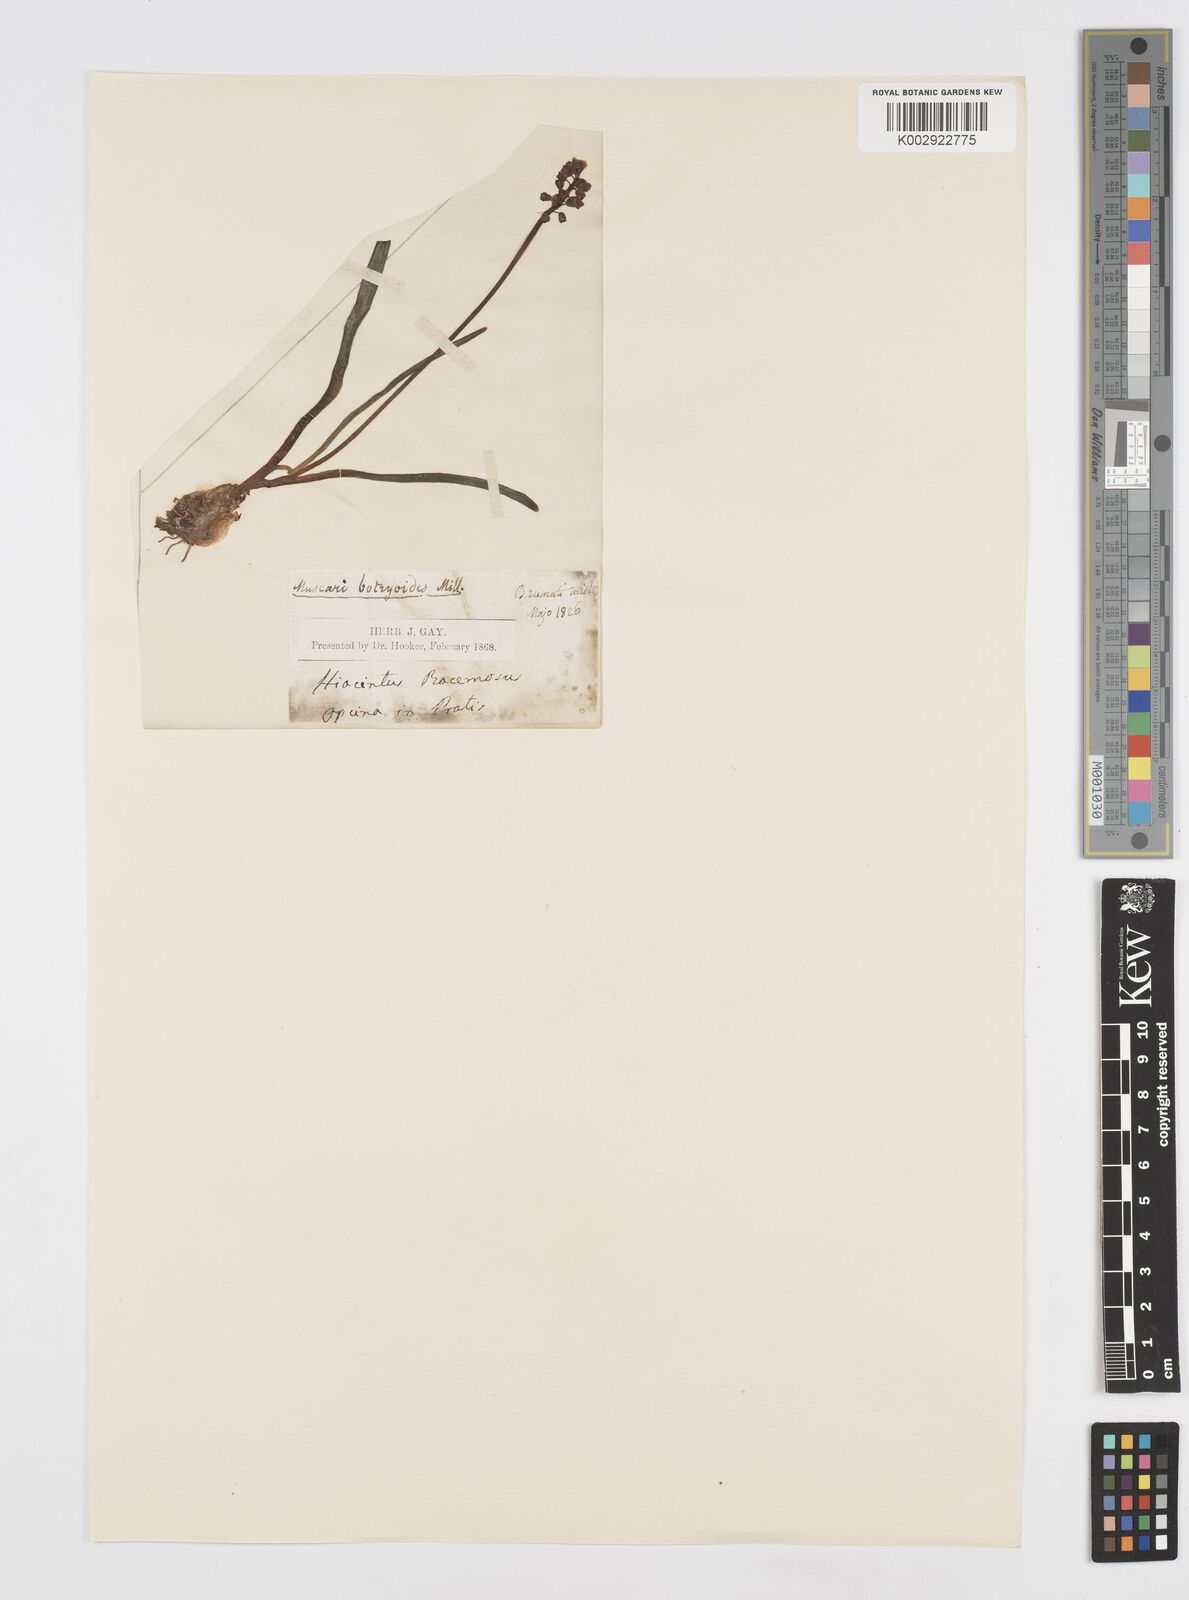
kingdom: Plantae
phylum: Tracheophyta
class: Liliopsida
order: Asparagales
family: Asparagaceae
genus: Muscari
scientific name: Muscari botryoides
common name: Compact grape-hyacinth
